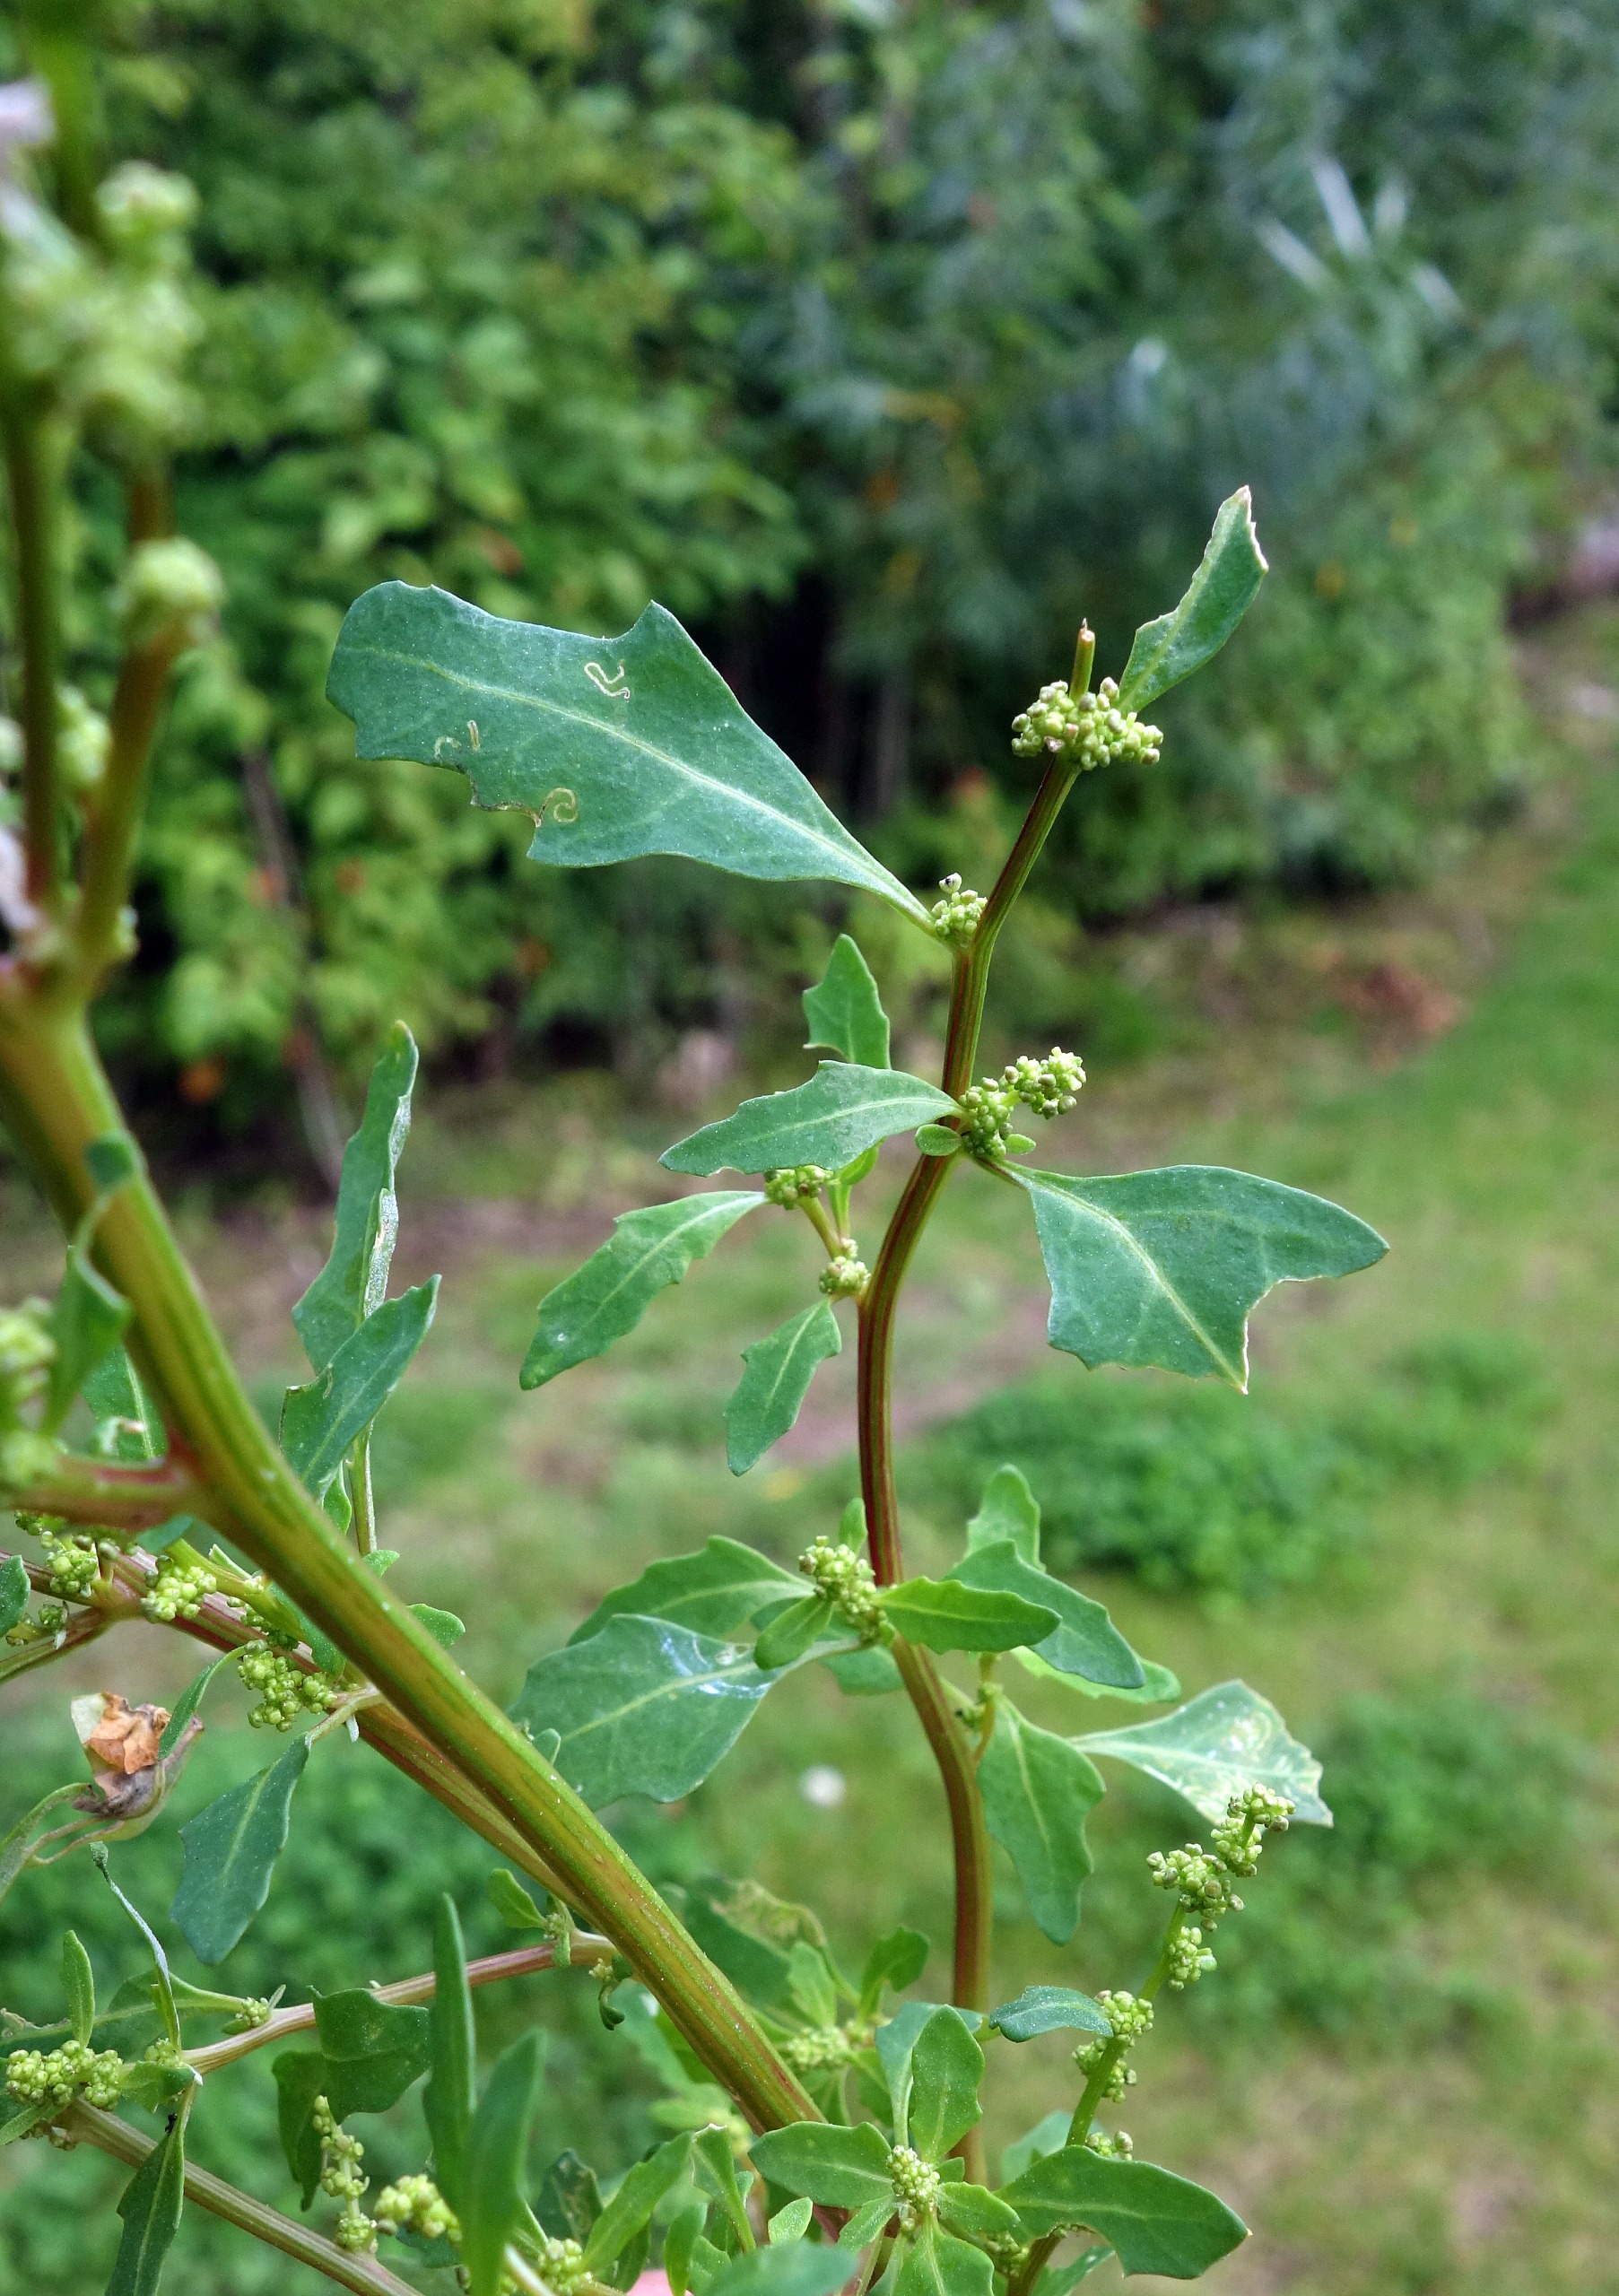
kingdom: Plantae
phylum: Tracheophyta
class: Magnoliopsida
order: Caryophyllales
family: Amaranthaceae
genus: Oxybasis
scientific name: Oxybasis glauca
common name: Blågrøn gåsefod
